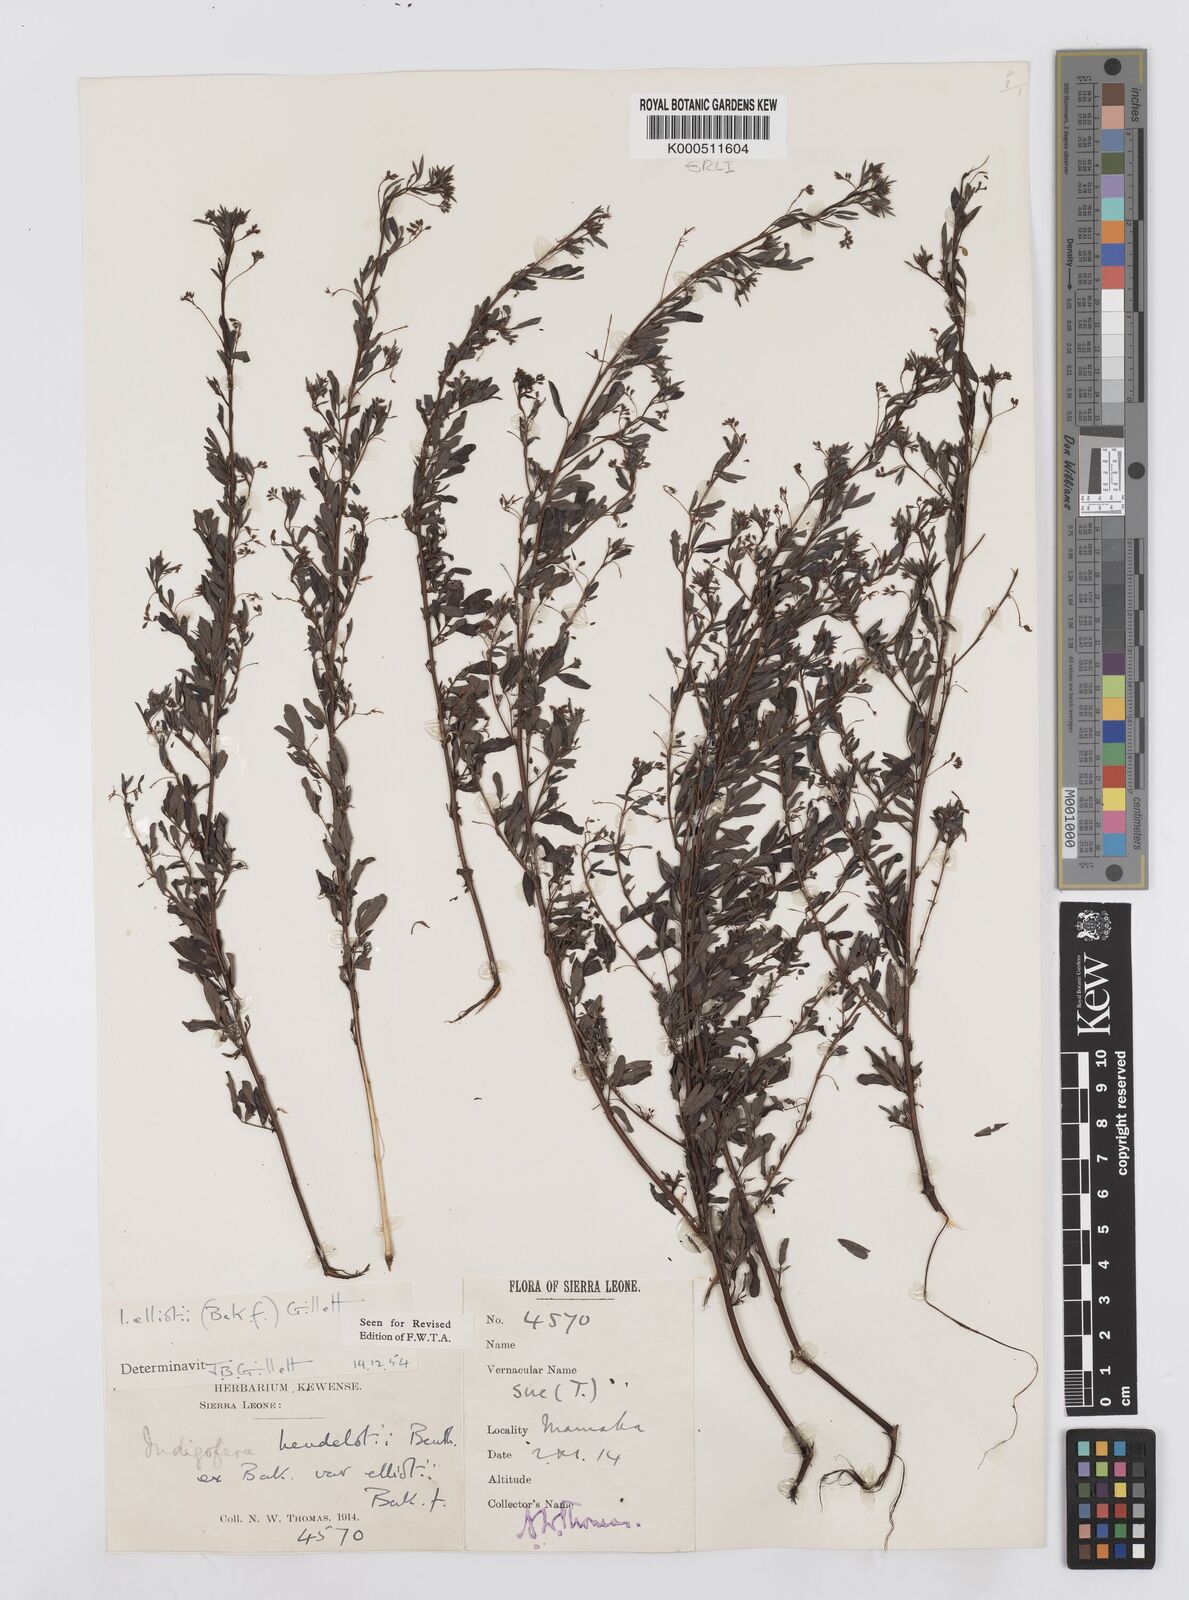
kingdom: Plantae
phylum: Tracheophyta
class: Magnoliopsida
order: Fabales
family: Fabaceae
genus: Indigofera
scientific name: Indigofera elliotii
